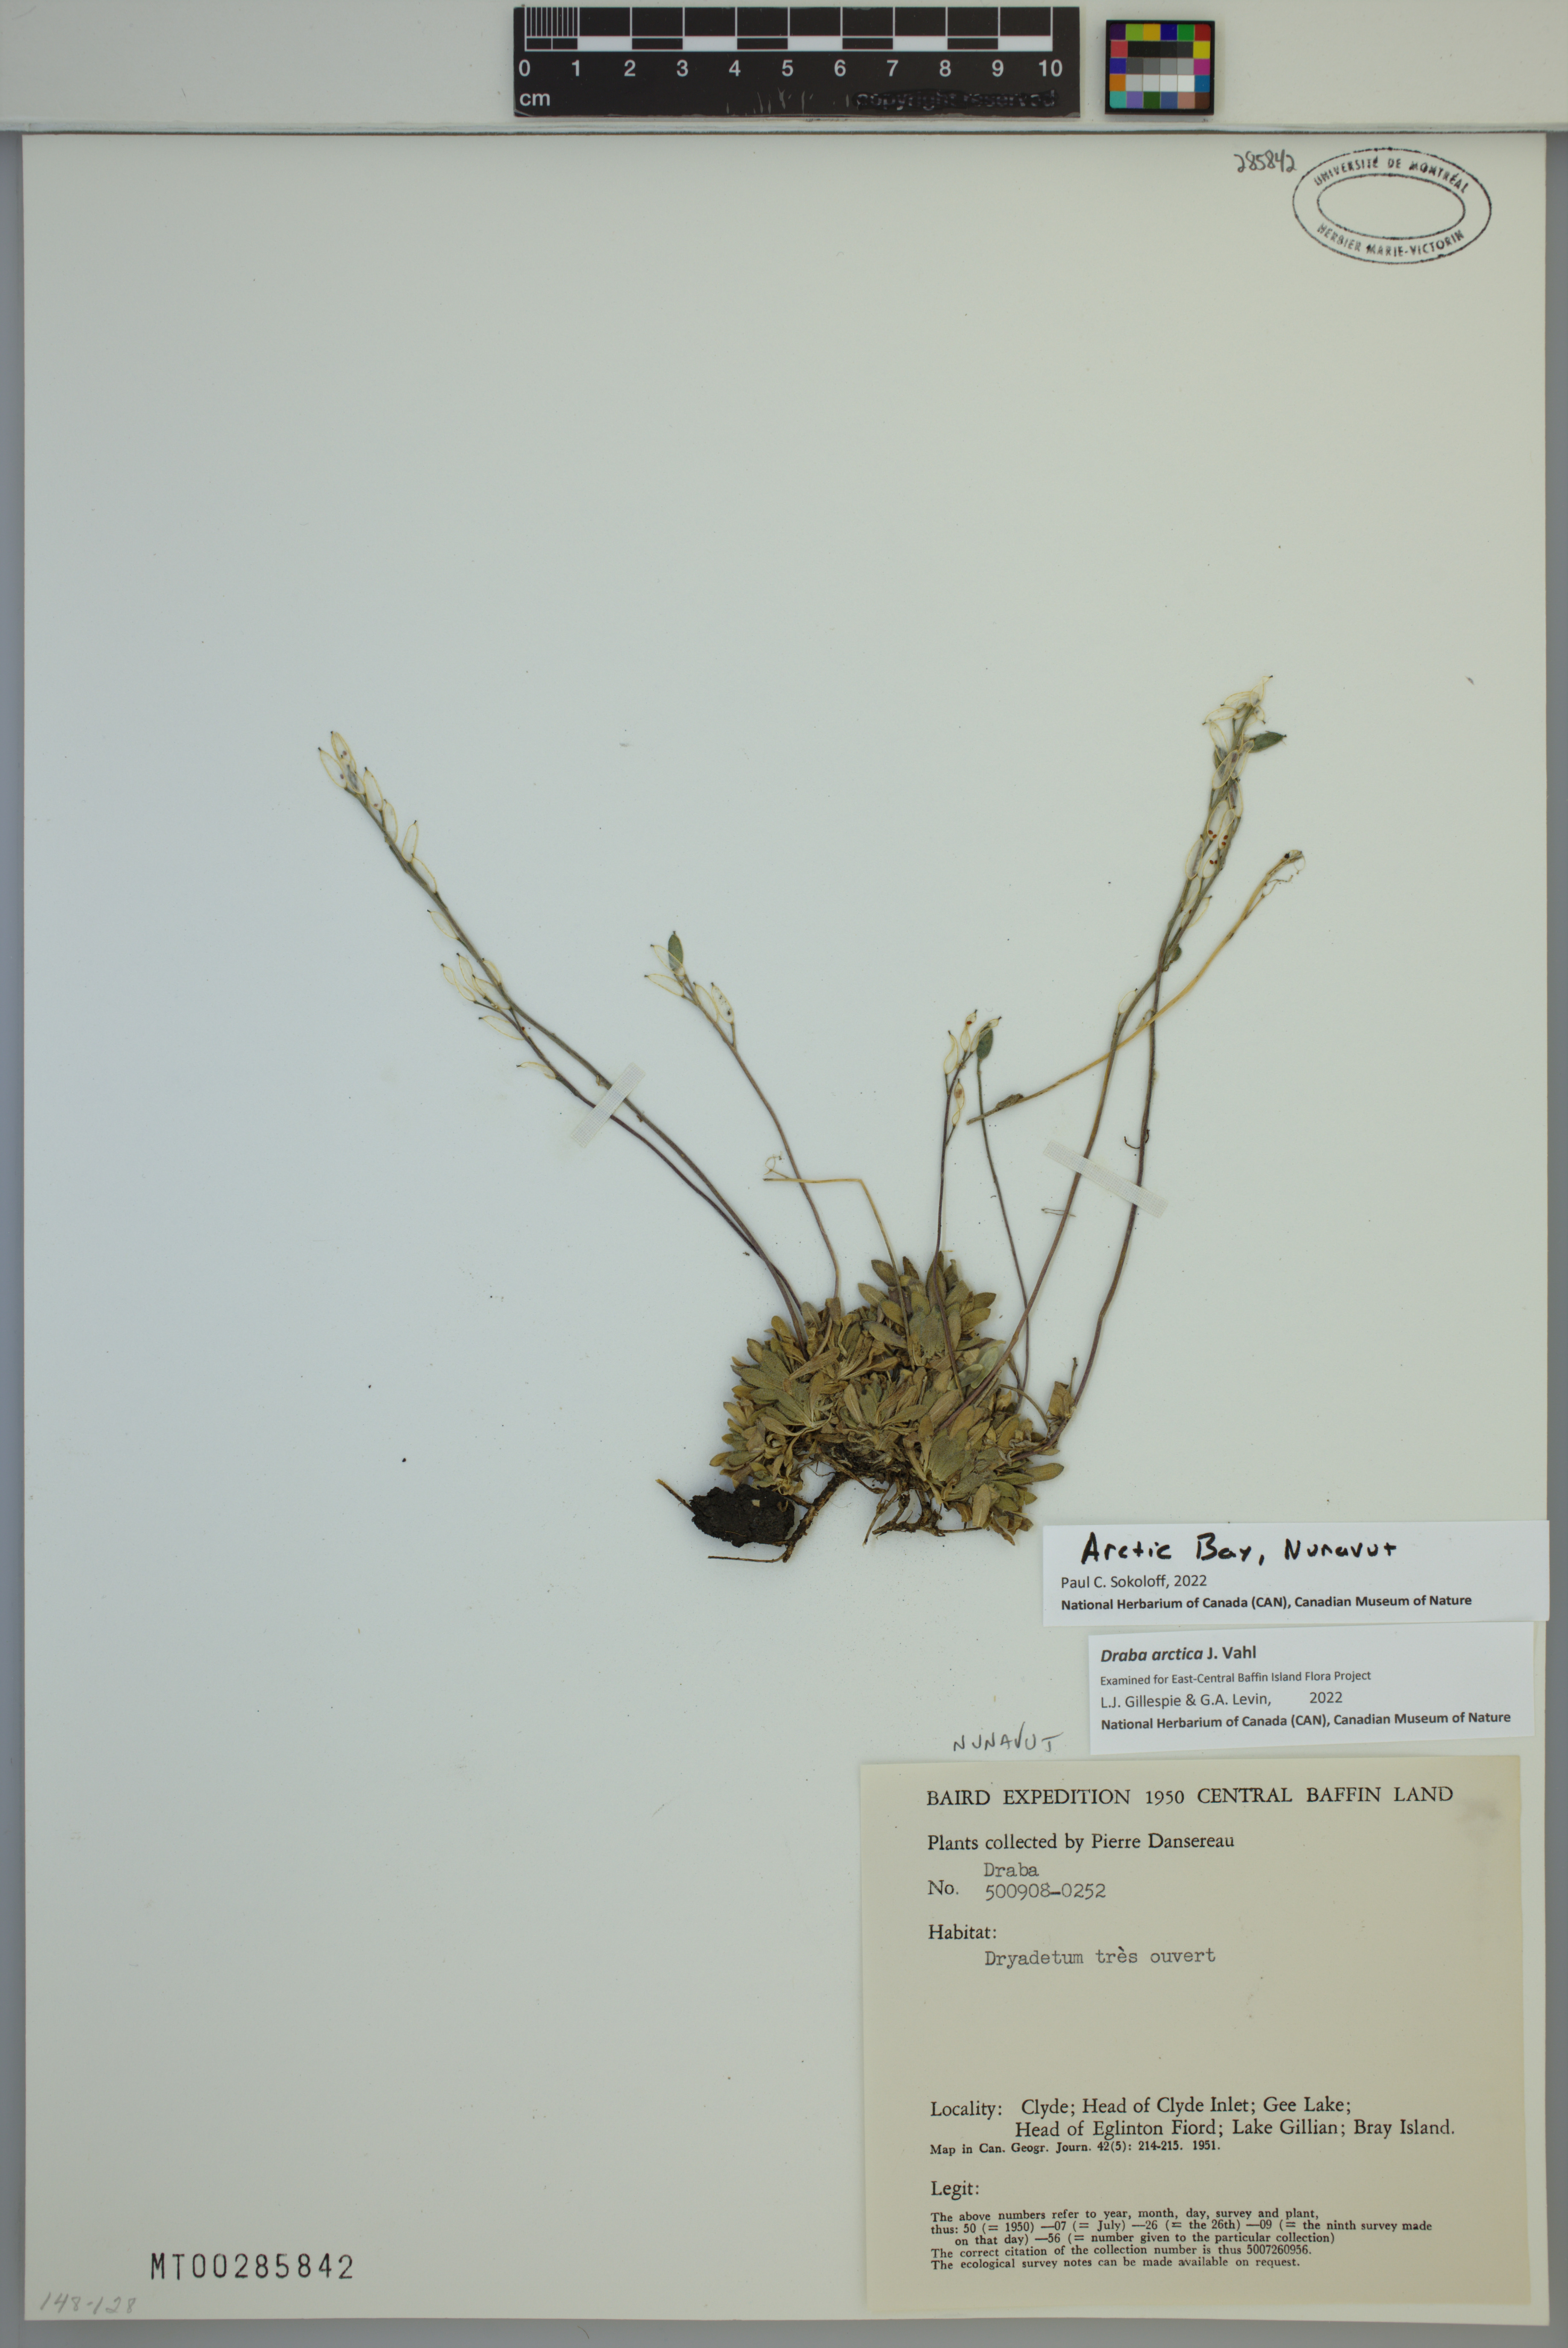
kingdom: Plantae
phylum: Tracheophyta
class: Magnoliopsida
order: Brassicales
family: Brassicaceae
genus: Draba
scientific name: Draba arctica
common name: Arctic draba
